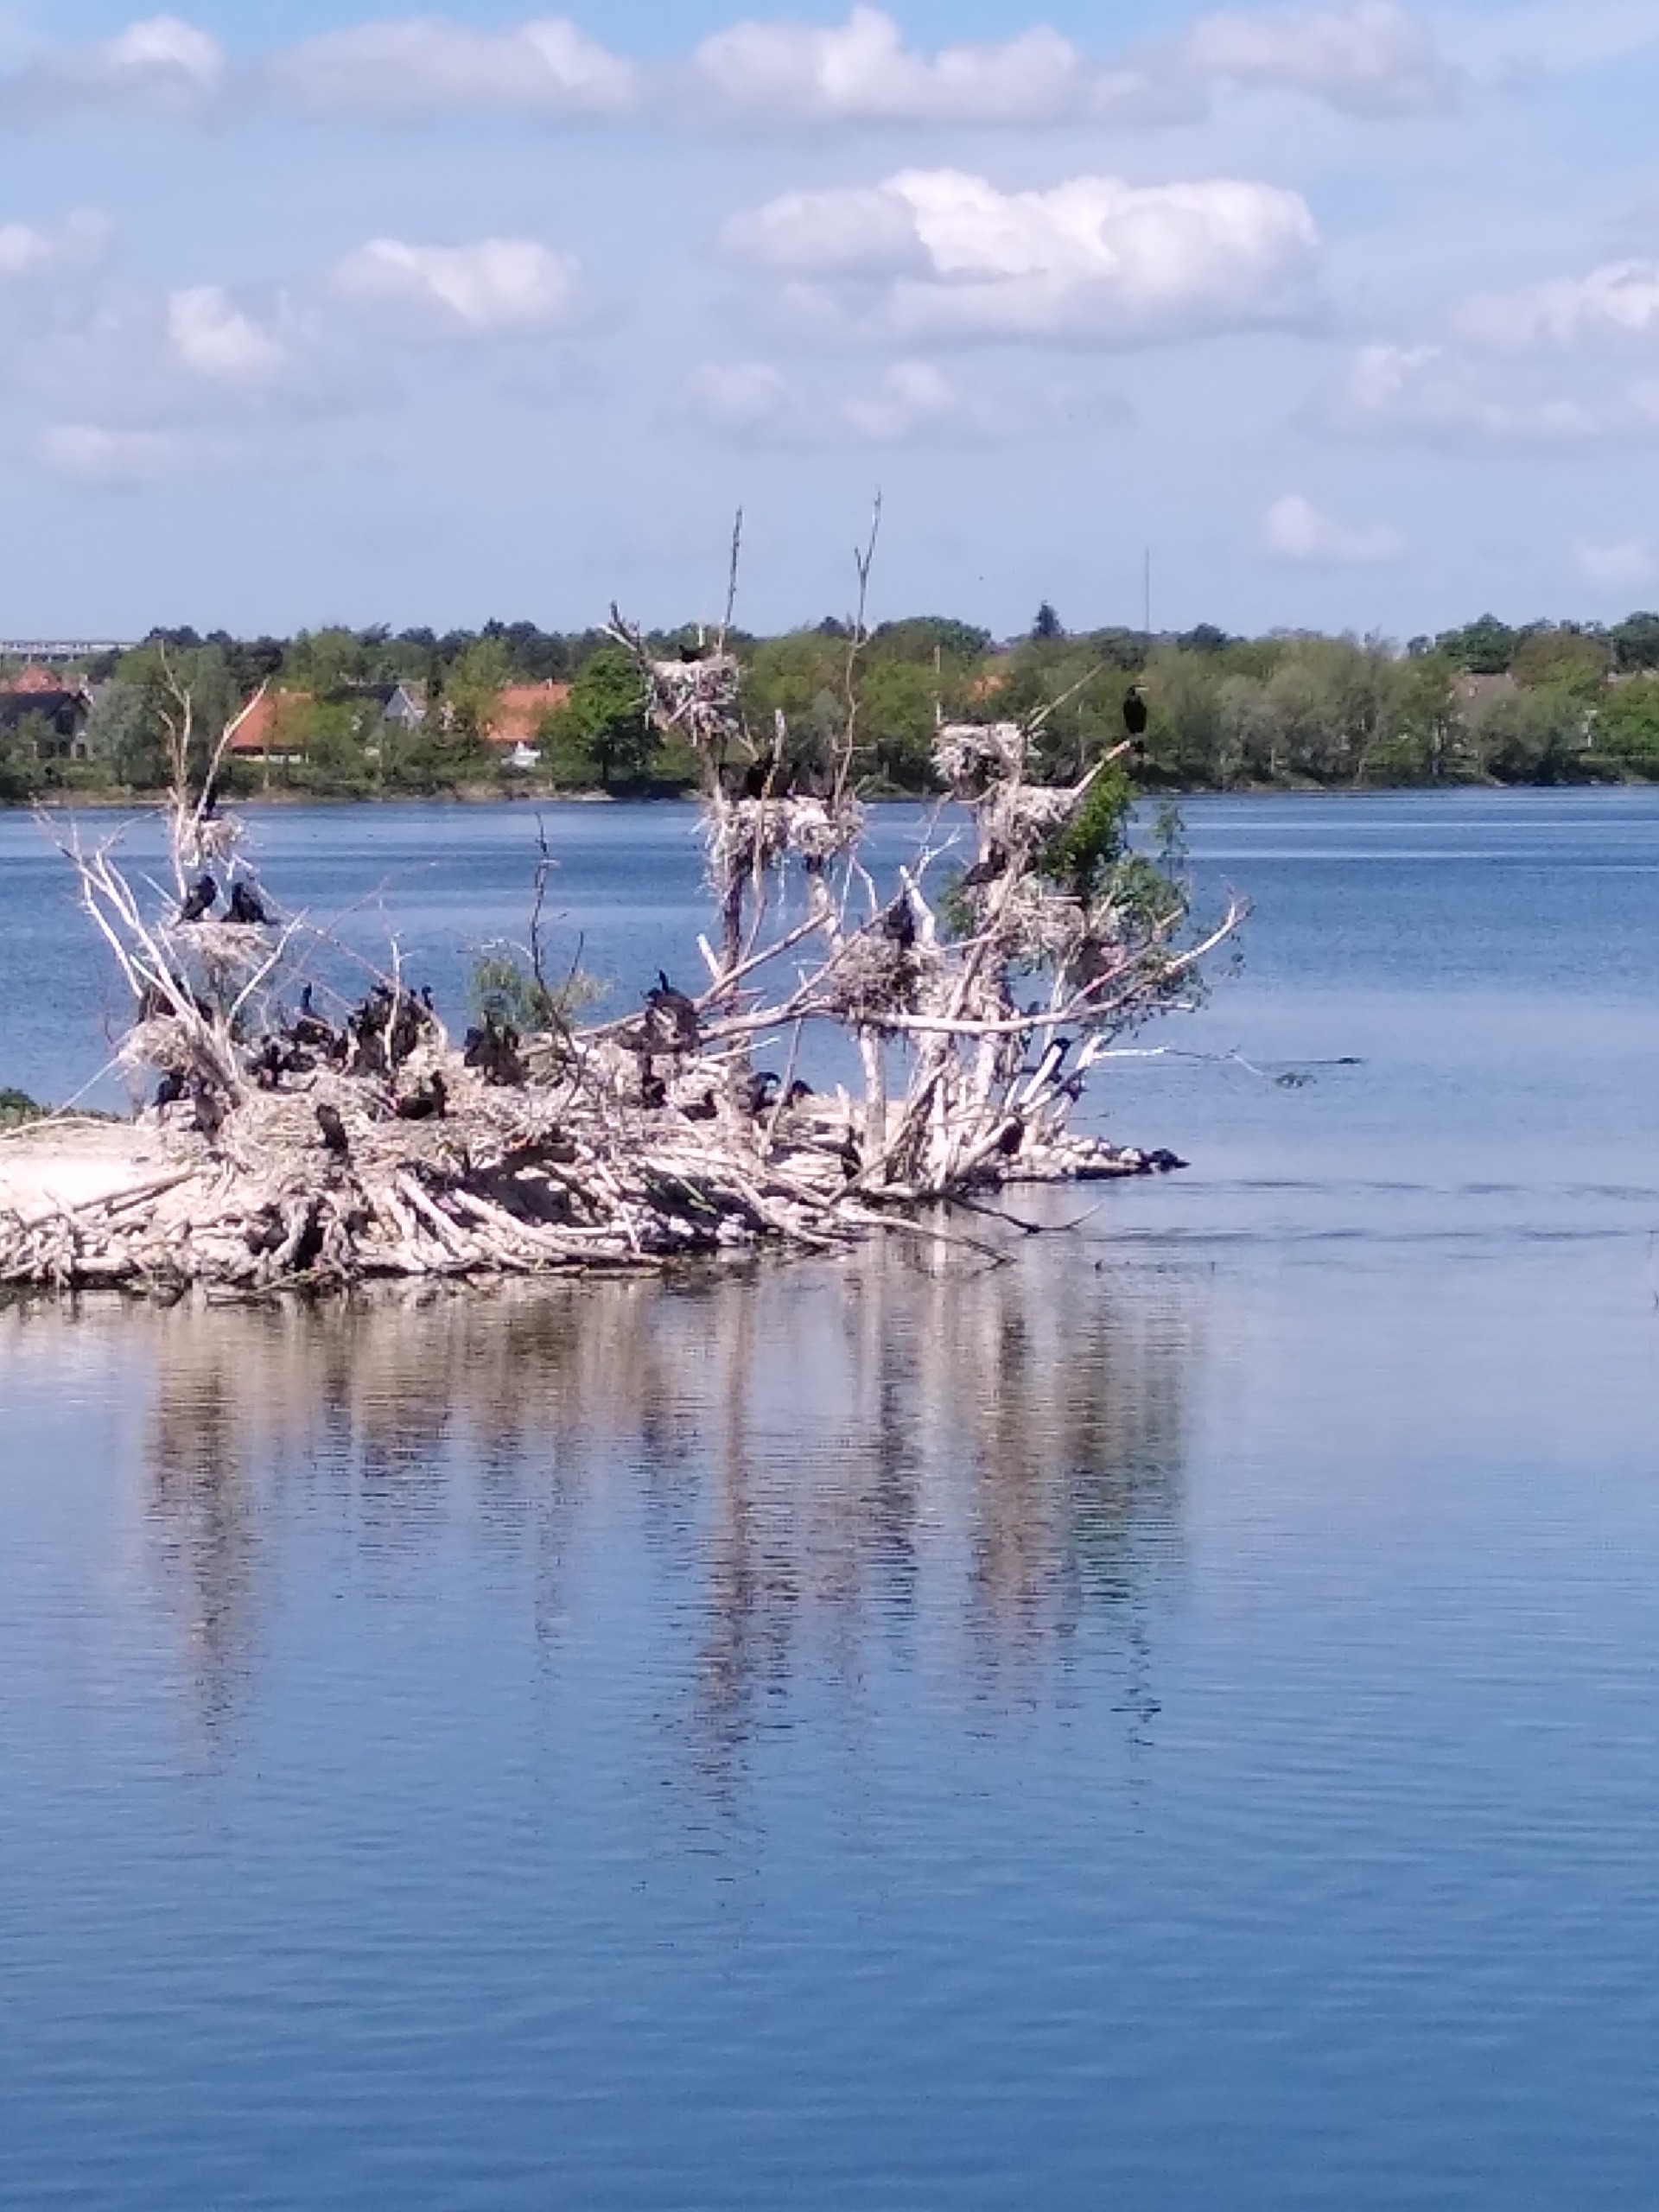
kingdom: Animalia
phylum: Chordata
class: Aves
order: Suliformes
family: Phalacrocoracidae
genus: Phalacrocorax
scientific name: Phalacrocorax carbo
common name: Skarv
